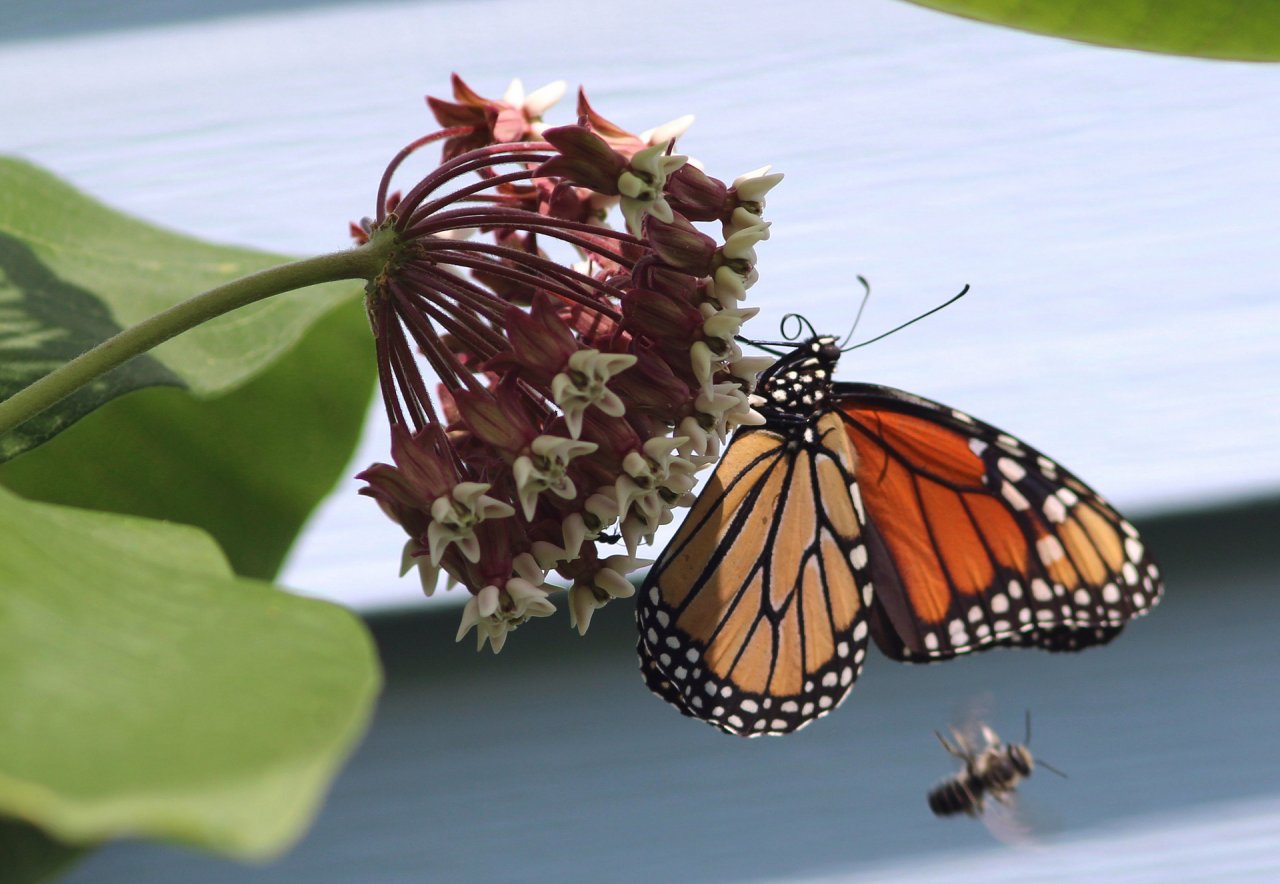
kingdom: Animalia
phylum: Arthropoda
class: Insecta
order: Lepidoptera
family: Nymphalidae
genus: Danaus
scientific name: Danaus plexippus
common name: Monarch
